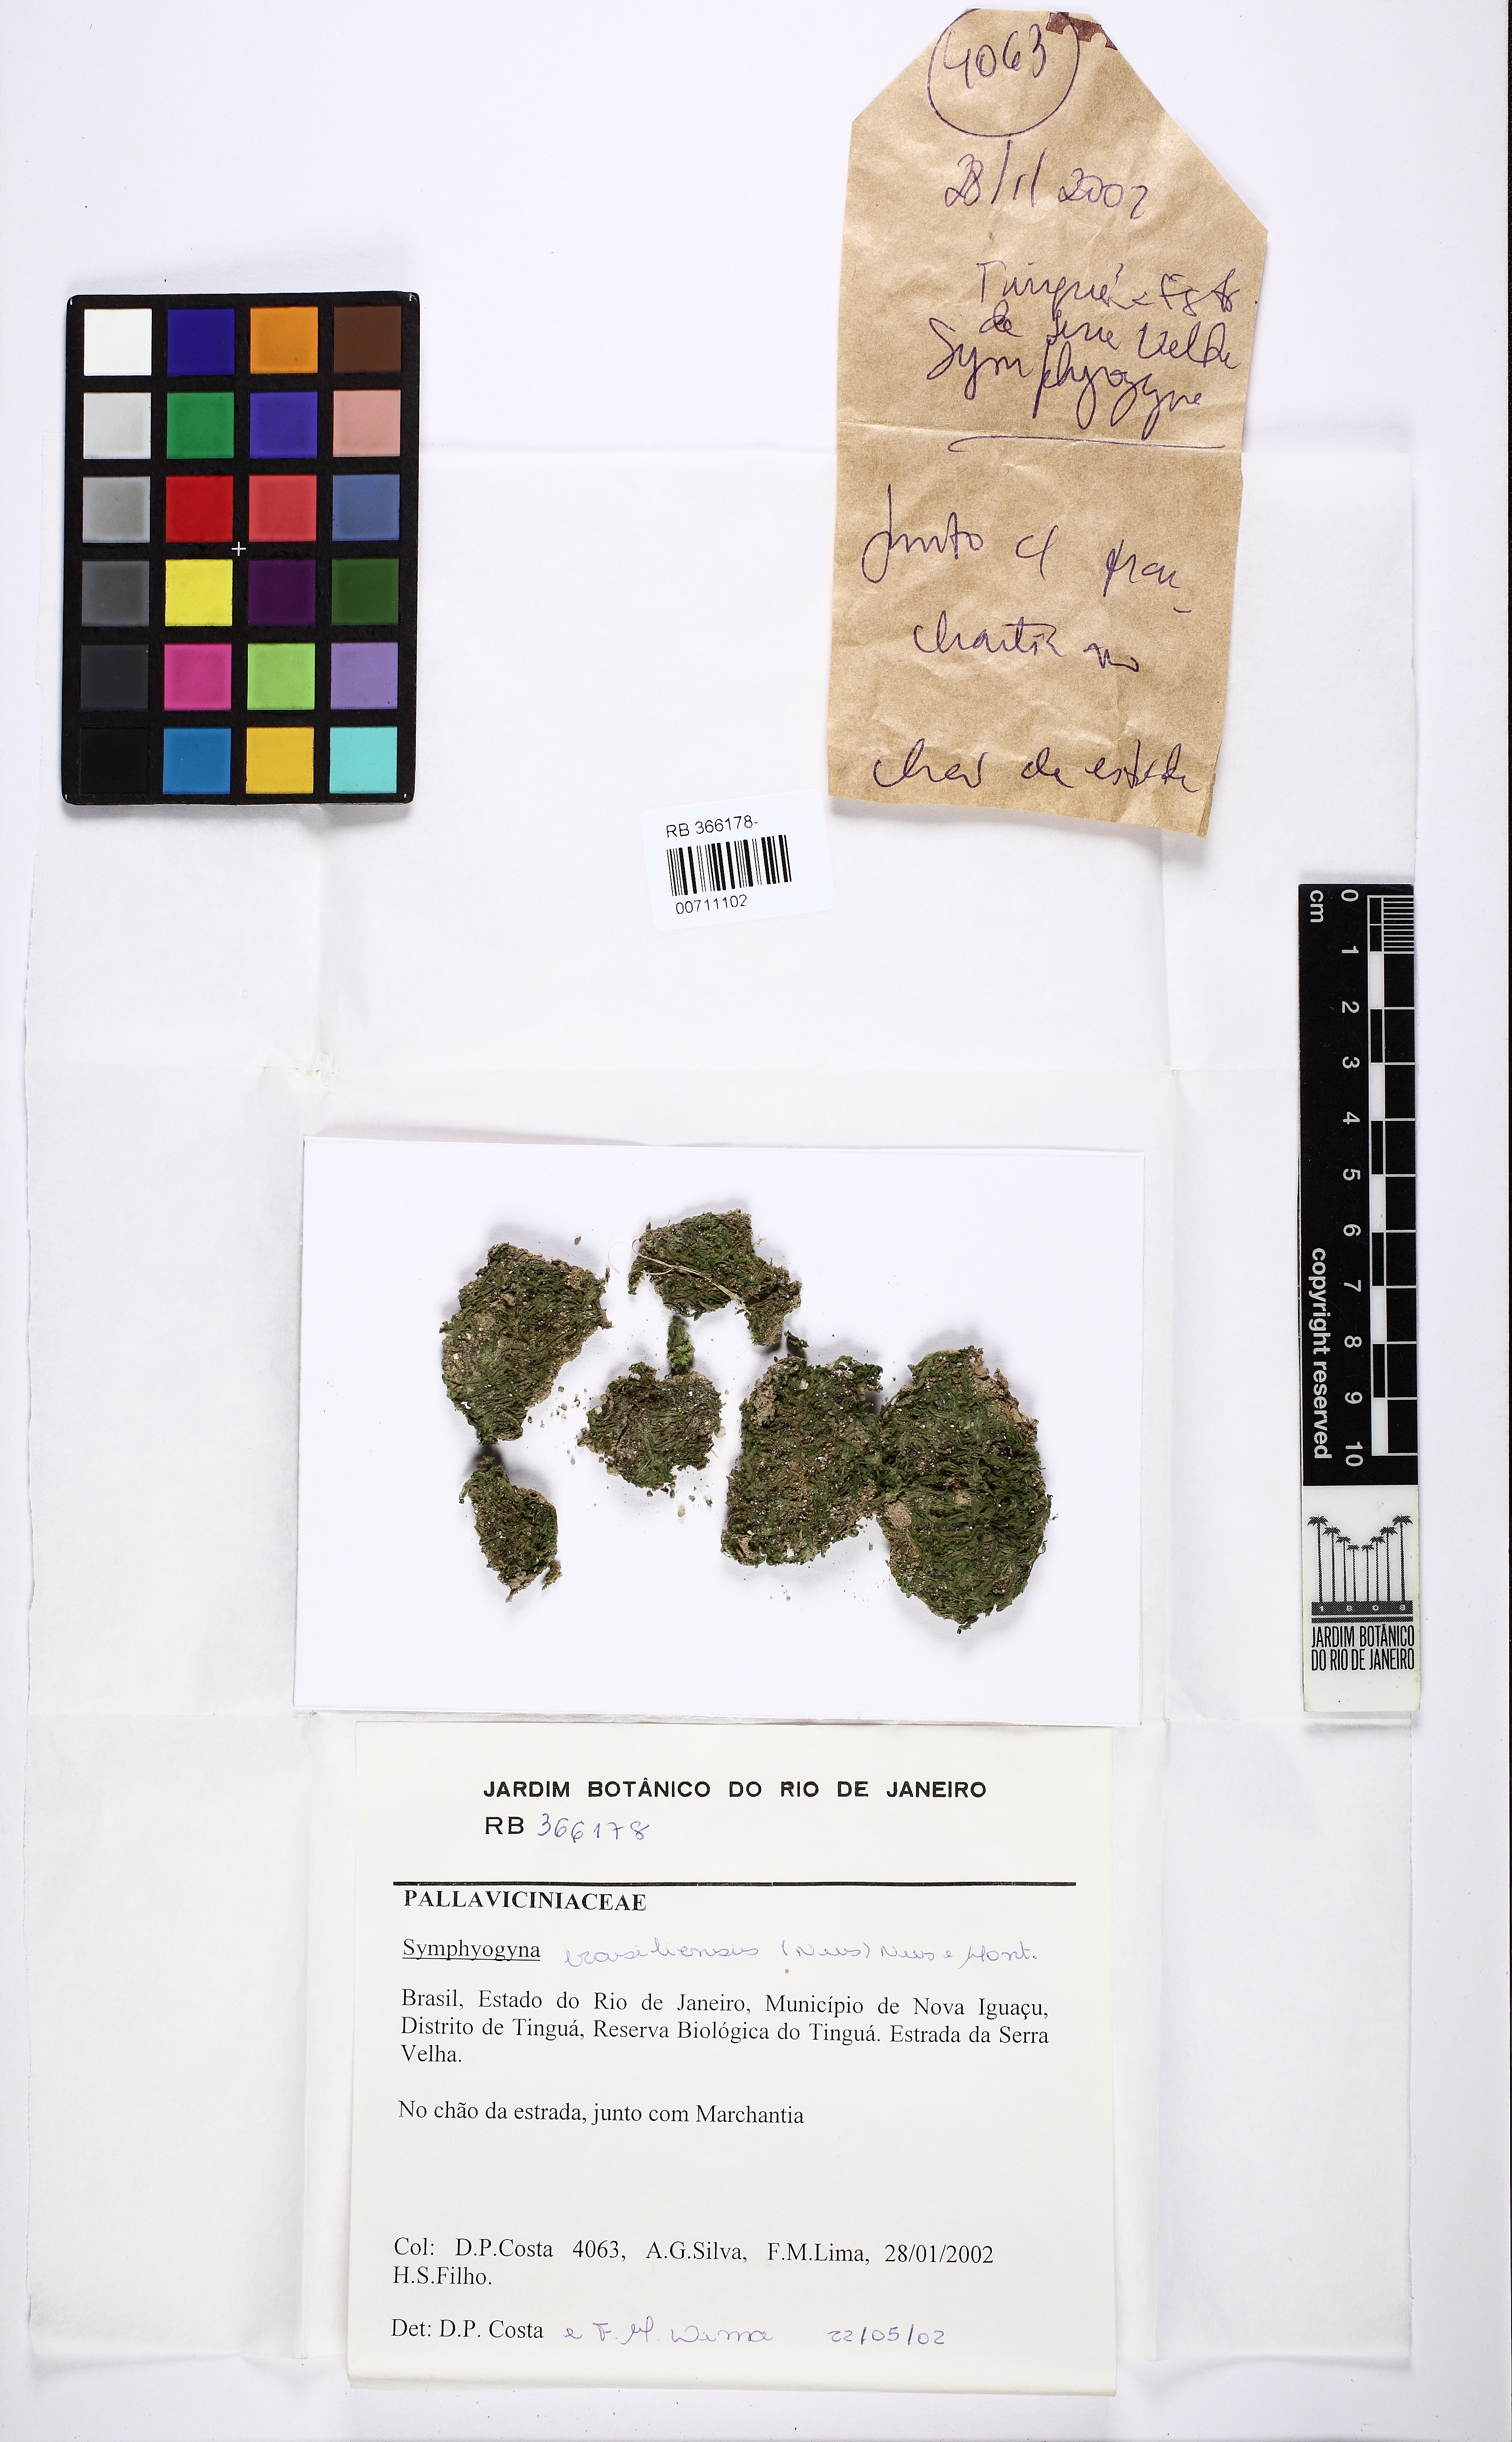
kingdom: Plantae
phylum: Marchantiophyta
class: Jungermanniopsida
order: Pallaviciniales
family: Pallaviciniaceae
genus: Symphyogyna
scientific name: Symphyogyna brasiliensis
